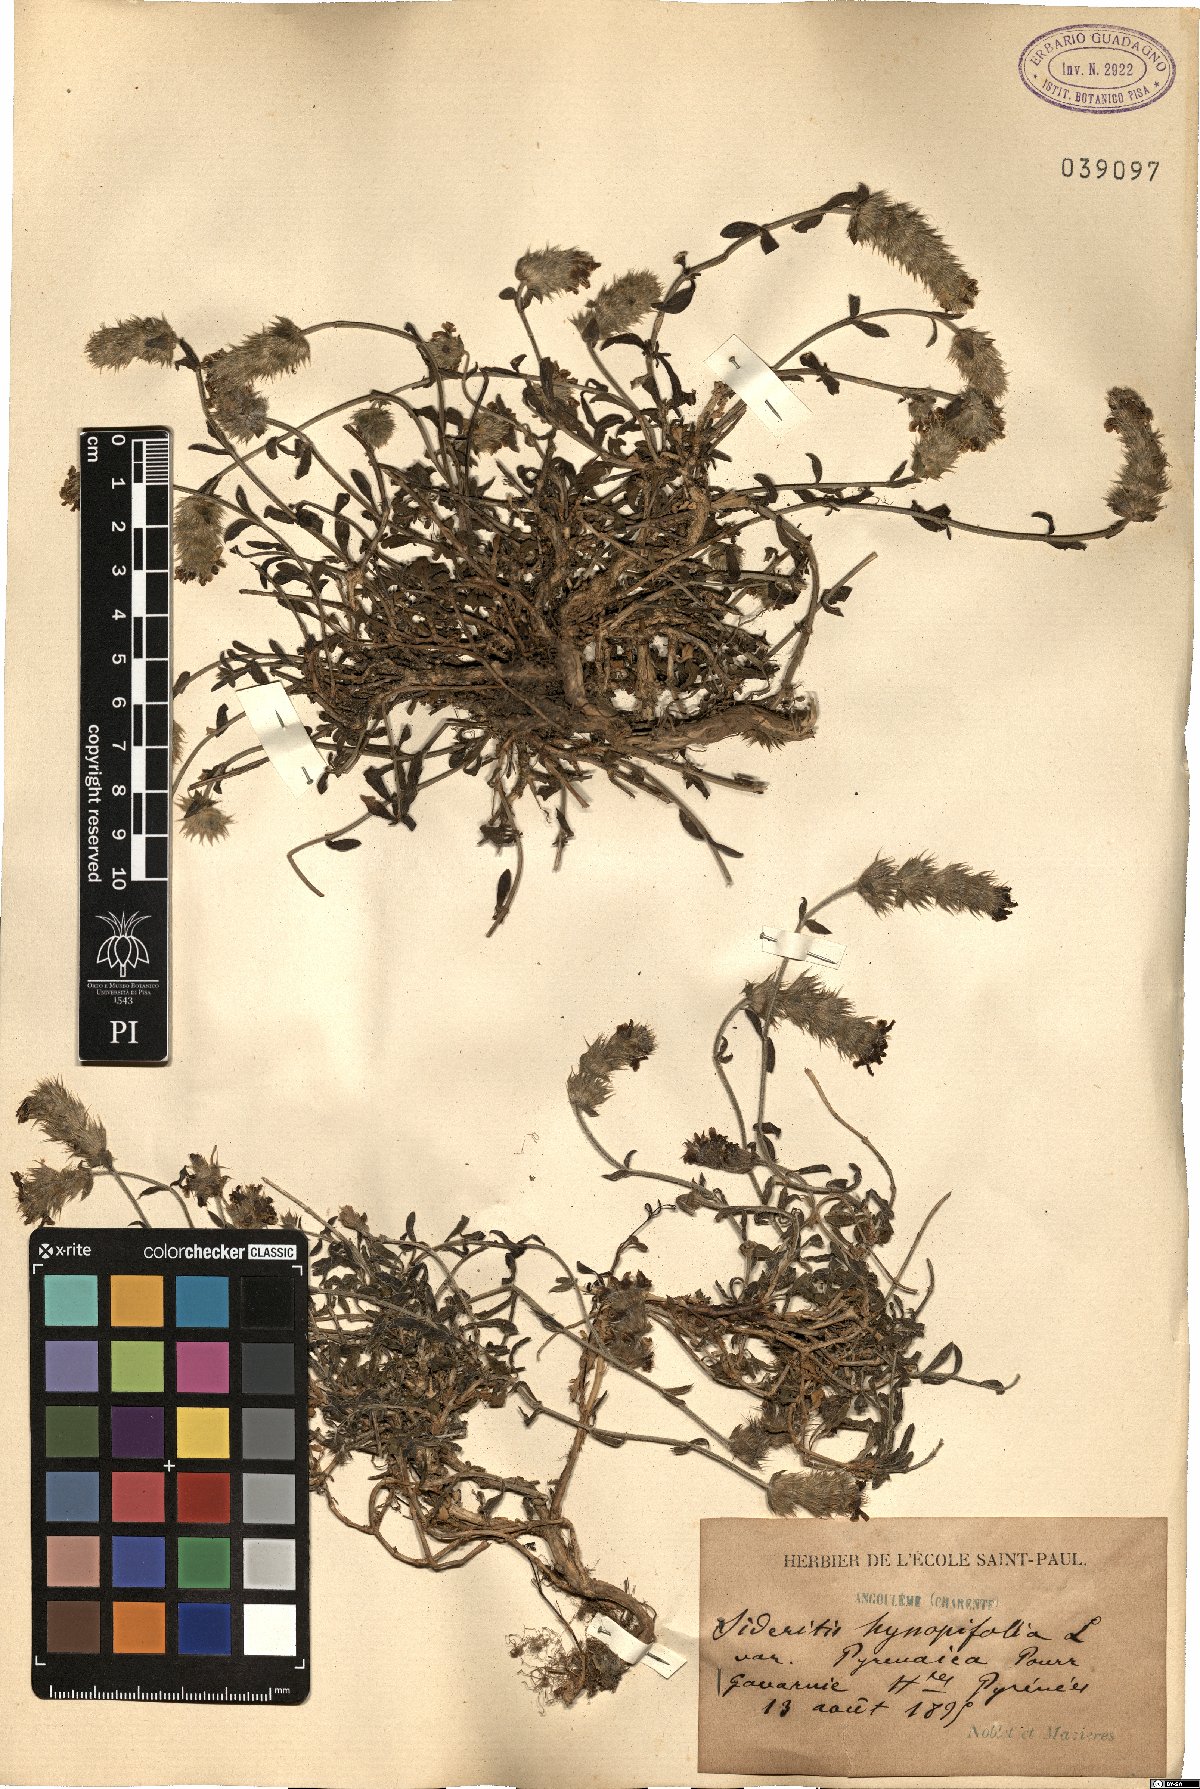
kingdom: Plantae
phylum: Tracheophyta
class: Magnoliopsida
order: Lamiales
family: Lamiaceae
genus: Sideritis
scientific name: Sideritis hyssopifolia
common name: Mountain tea
